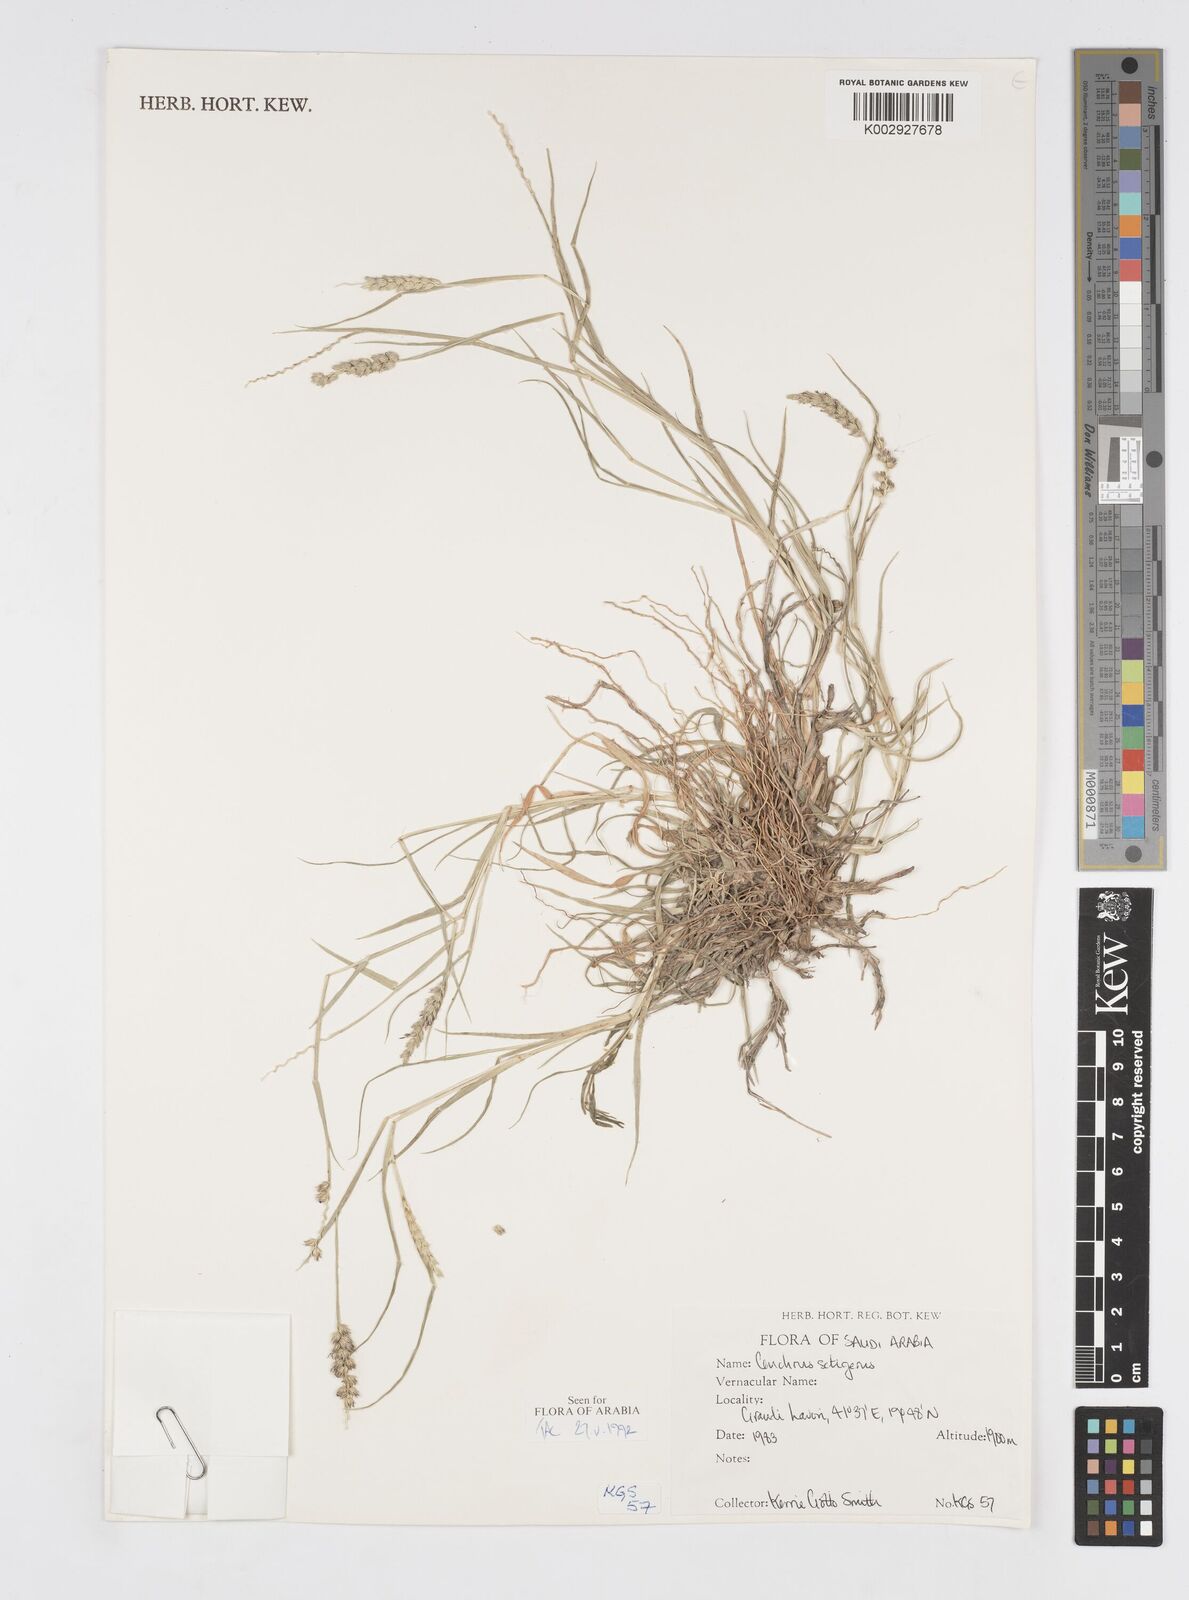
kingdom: Plantae
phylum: Tracheophyta
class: Liliopsida
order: Poales
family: Poaceae
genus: Cenchrus
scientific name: Cenchrus setigerus
